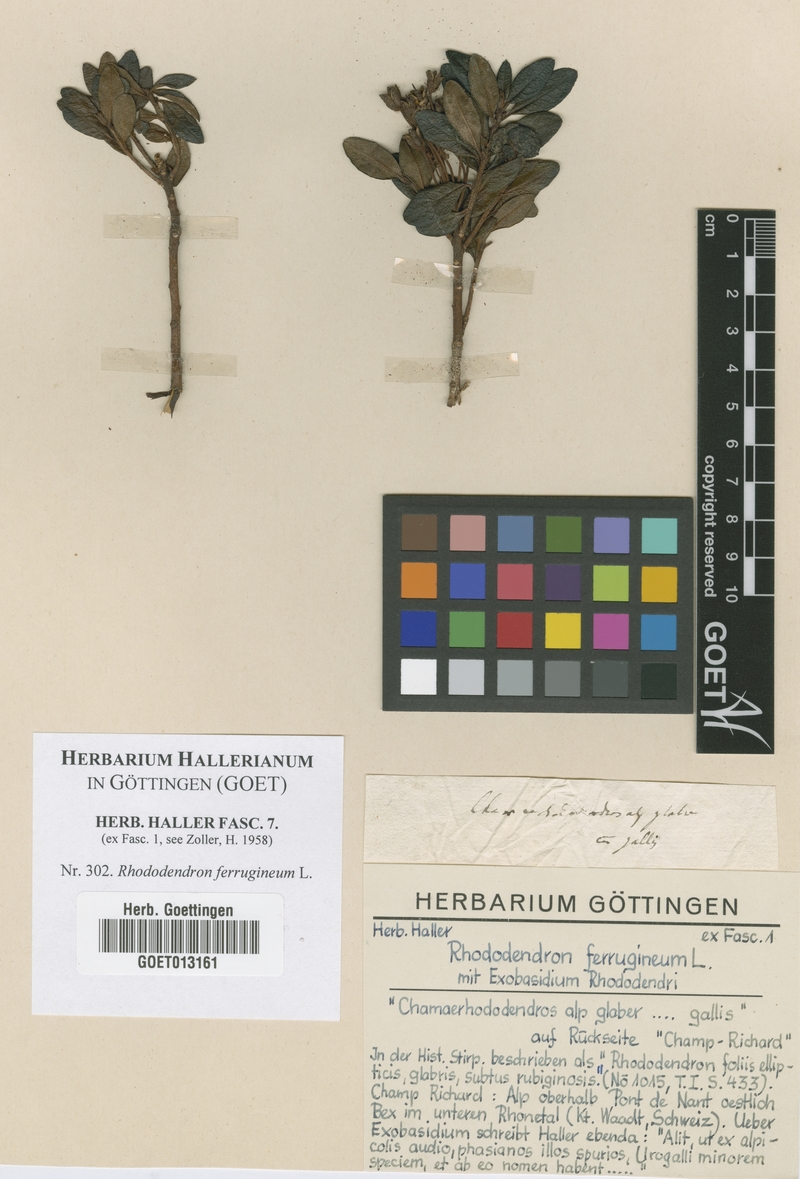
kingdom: Plantae
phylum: Tracheophyta
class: Magnoliopsida
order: Ericales
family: Ericaceae
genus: Rhododendron
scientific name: Rhododendron ferrugineum
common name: Alpenrose
